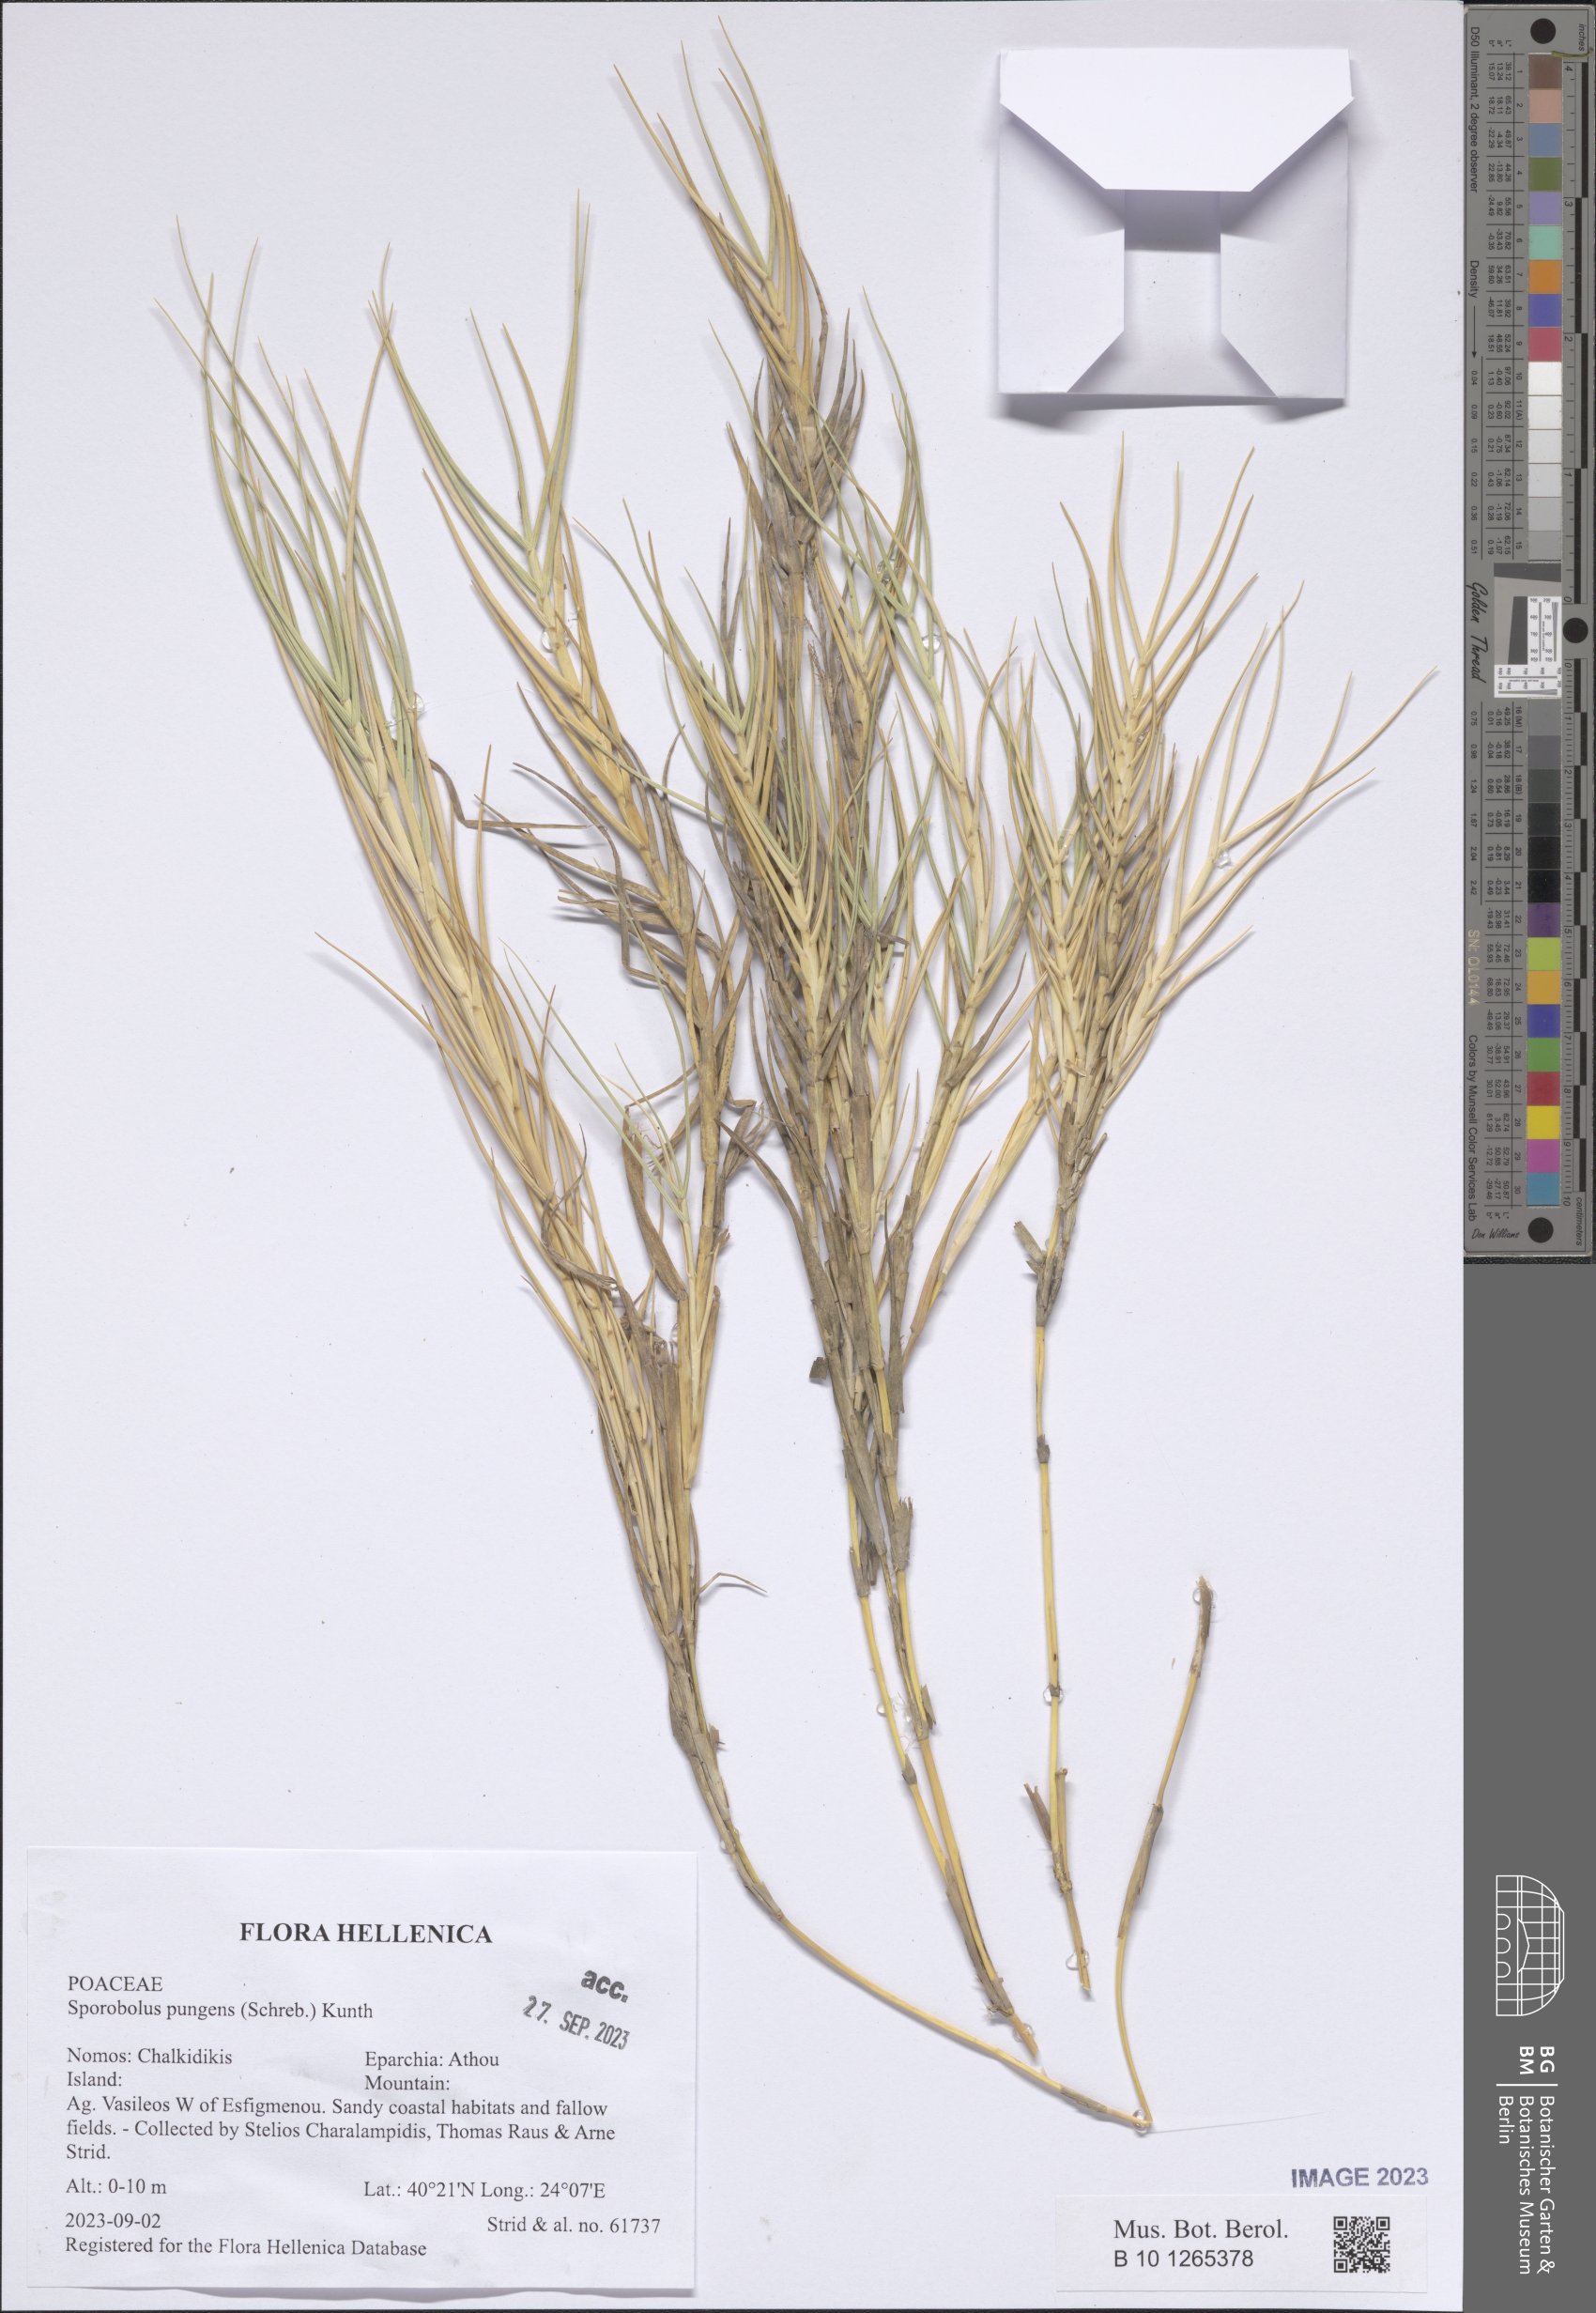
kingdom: Plantae
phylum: Tracheophyta
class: Liliopsida
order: Poales
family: Poaceae
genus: Sporobolus
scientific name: Sporobolus pungens
